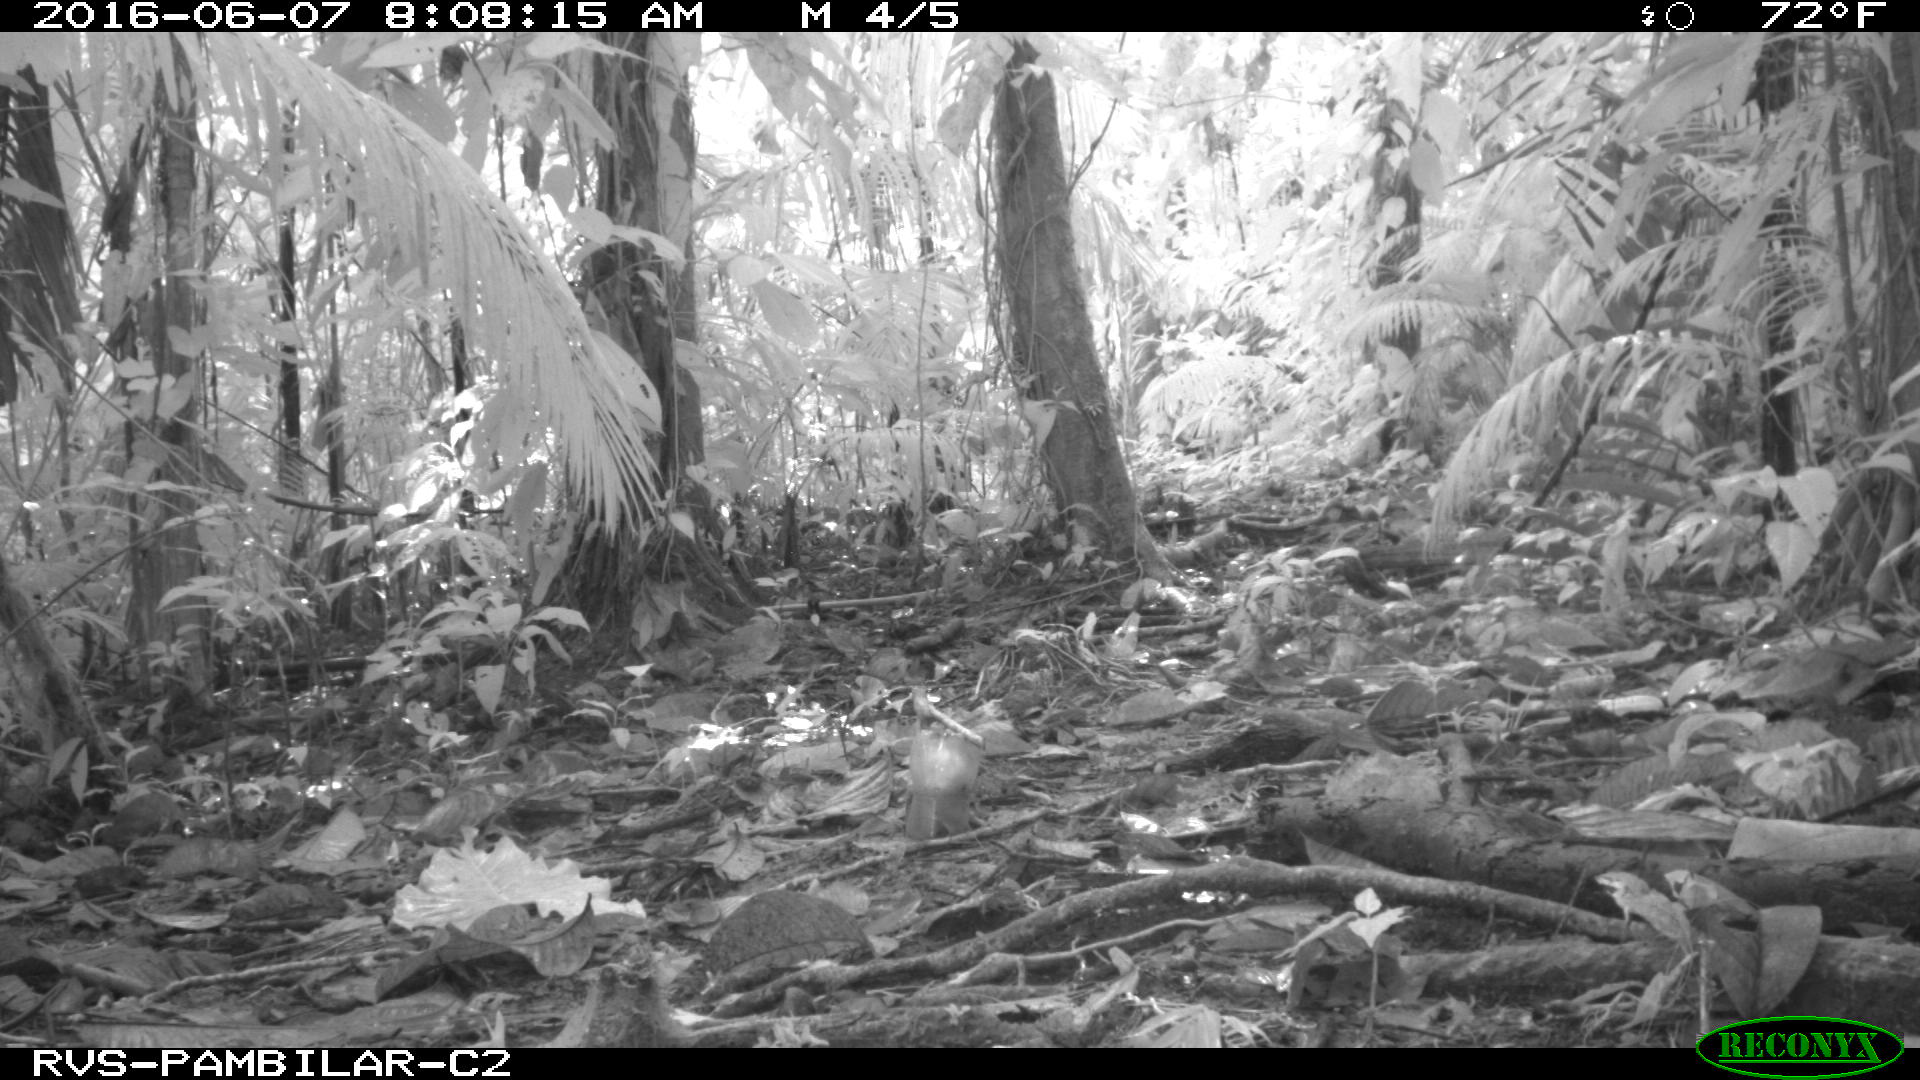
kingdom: Animalia
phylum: Chordata
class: Mammalia
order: Rodentia
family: Dasyproctidae
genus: Dasyprocta
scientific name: Dasyprocta punctata
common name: Central american agouti
